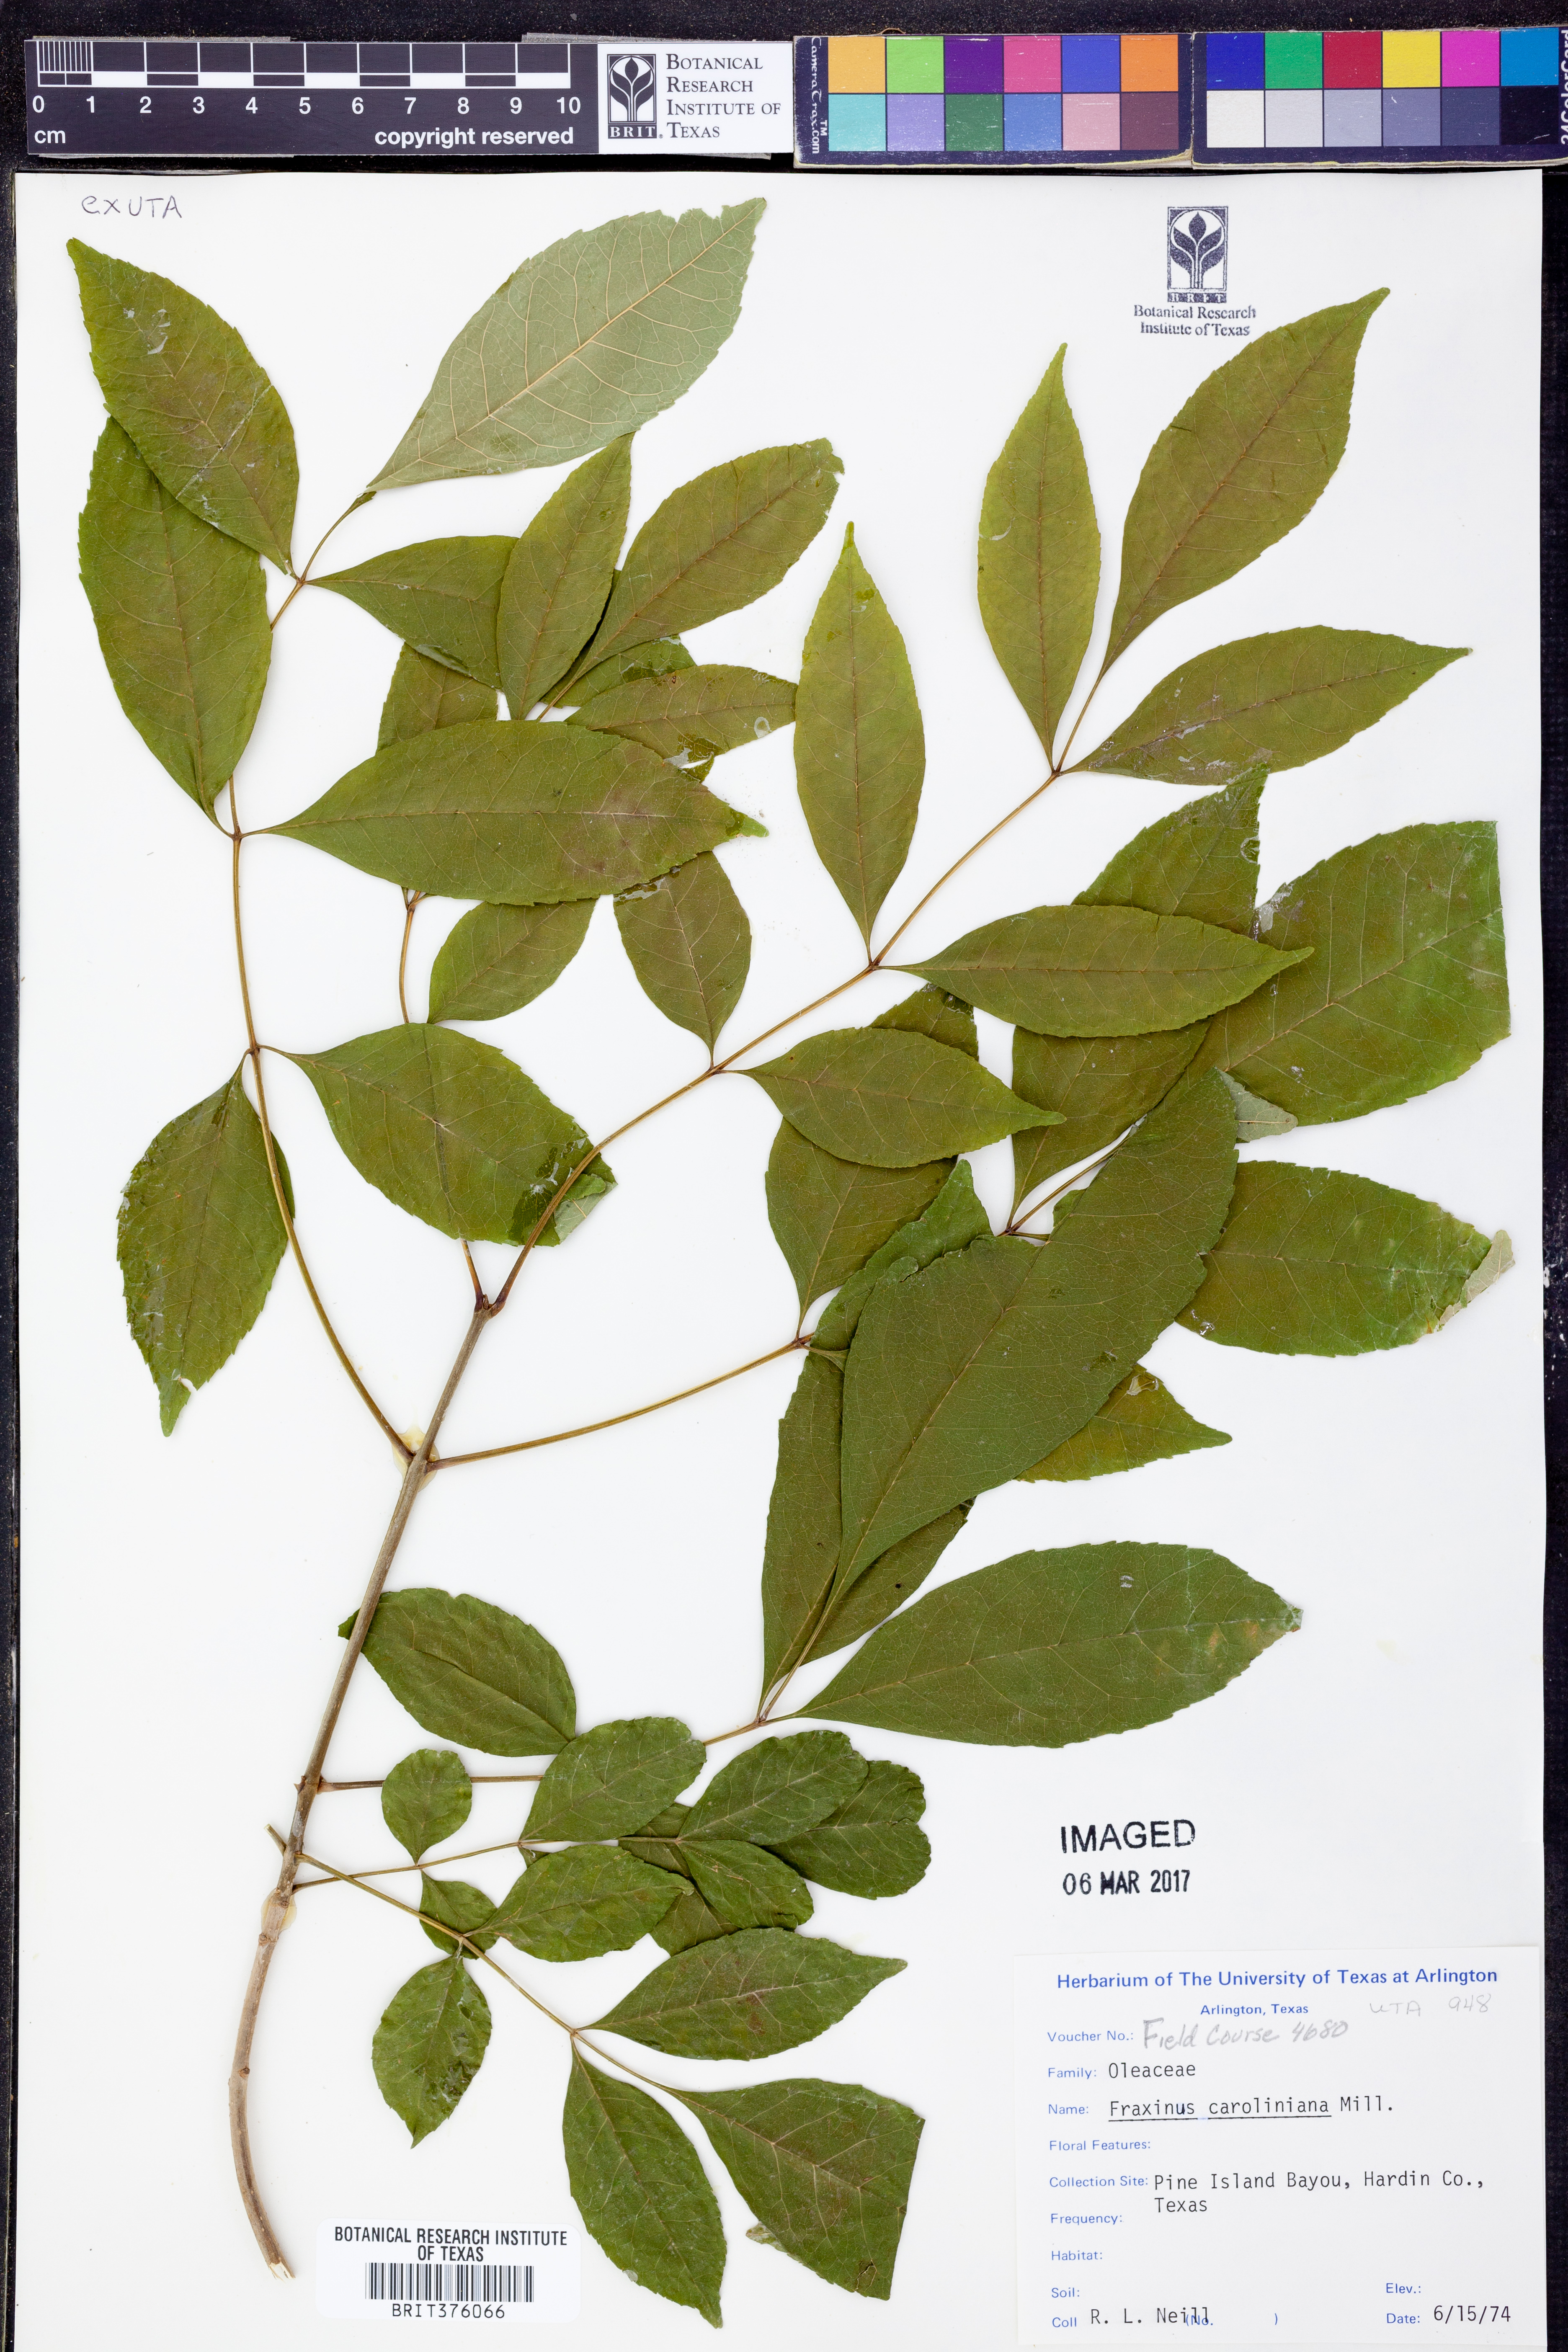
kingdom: Plantae
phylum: Tracheophyta
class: Magnoliopsida
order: Lamiales
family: Oleaceae
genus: Fraxinus
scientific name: Fraxinus caroliniana
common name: Carolina ash
